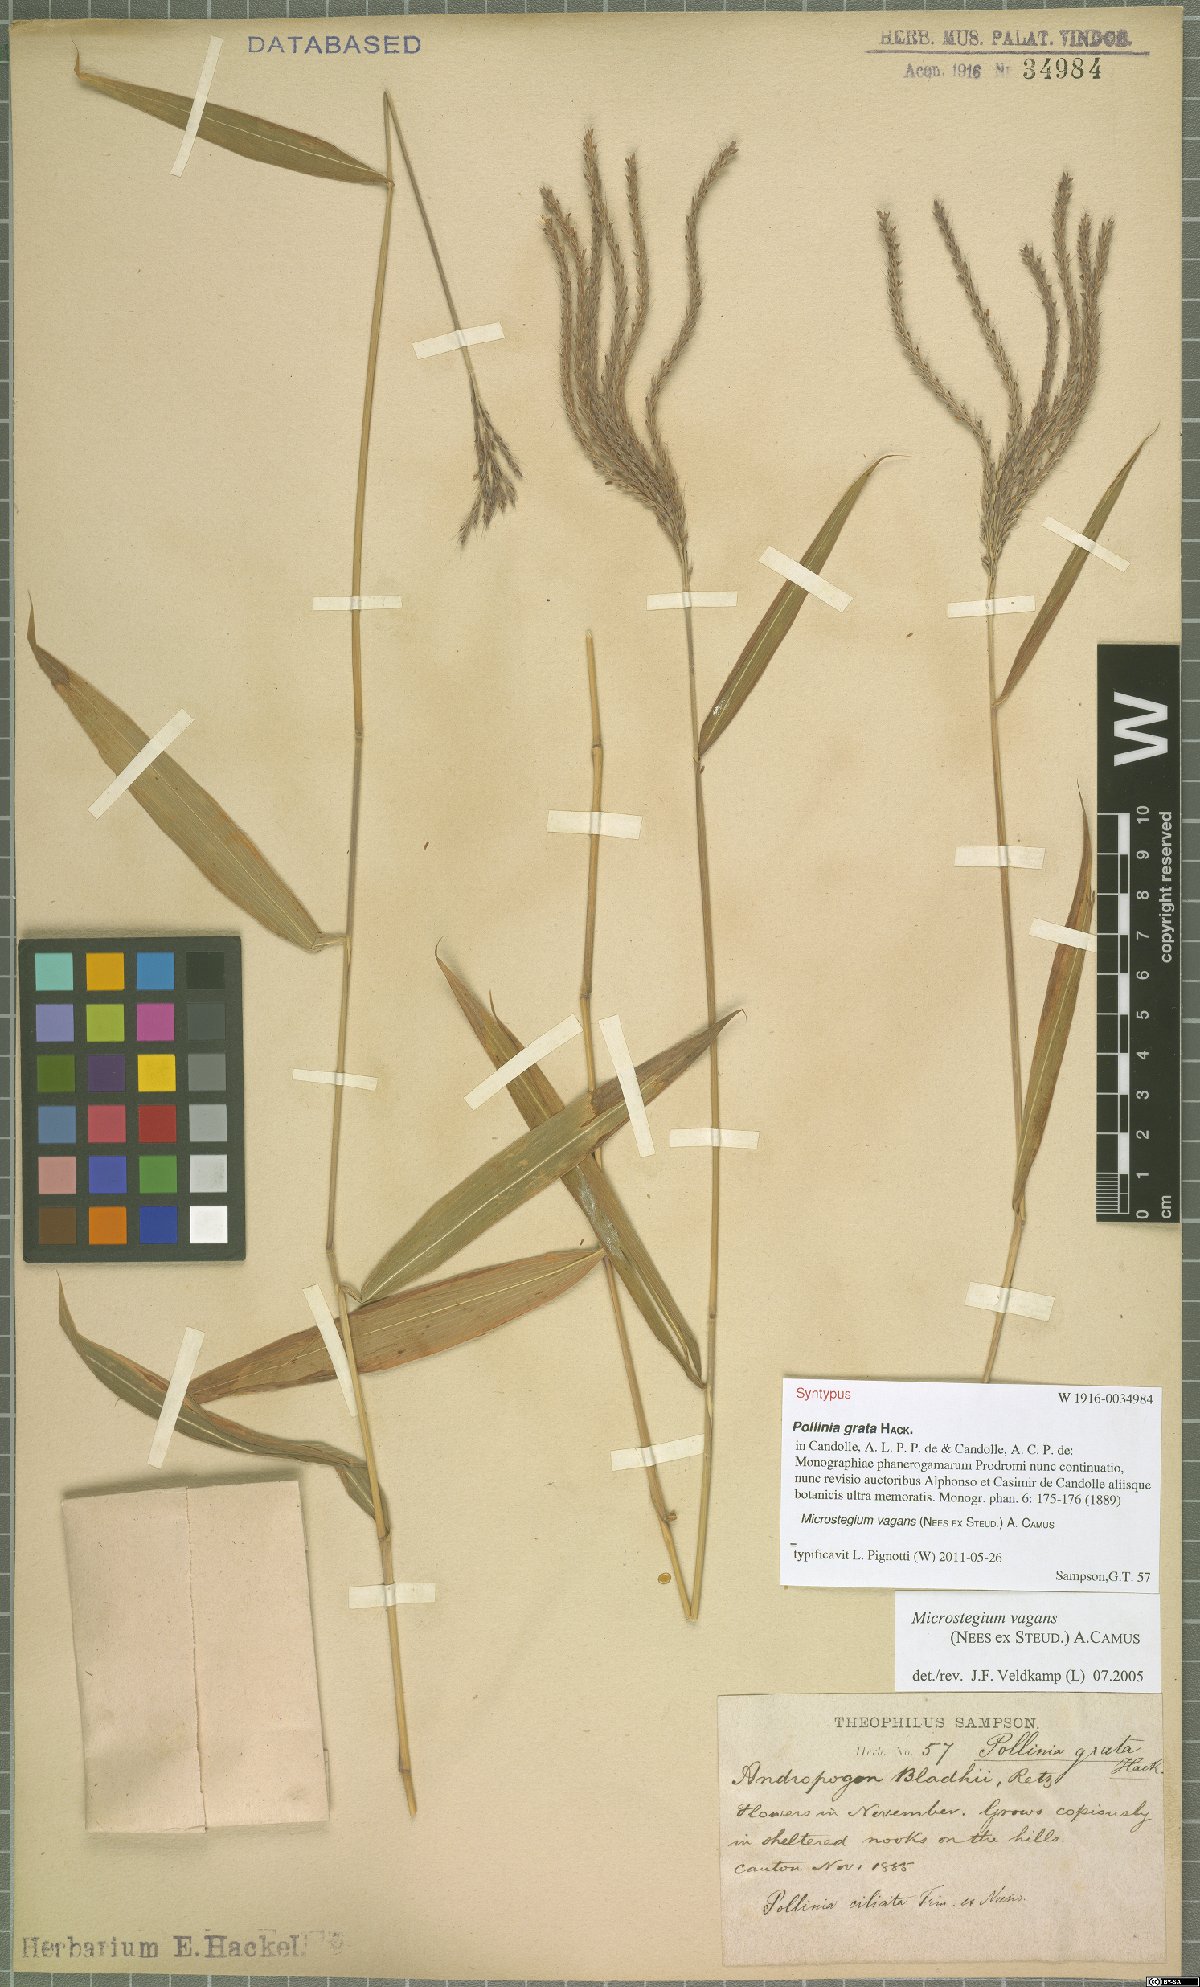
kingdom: Plantae
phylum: Tracheophyta
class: Liliopsida
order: Poales
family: Poaceae
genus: Microstegium
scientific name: Microstegium fasciculatum
